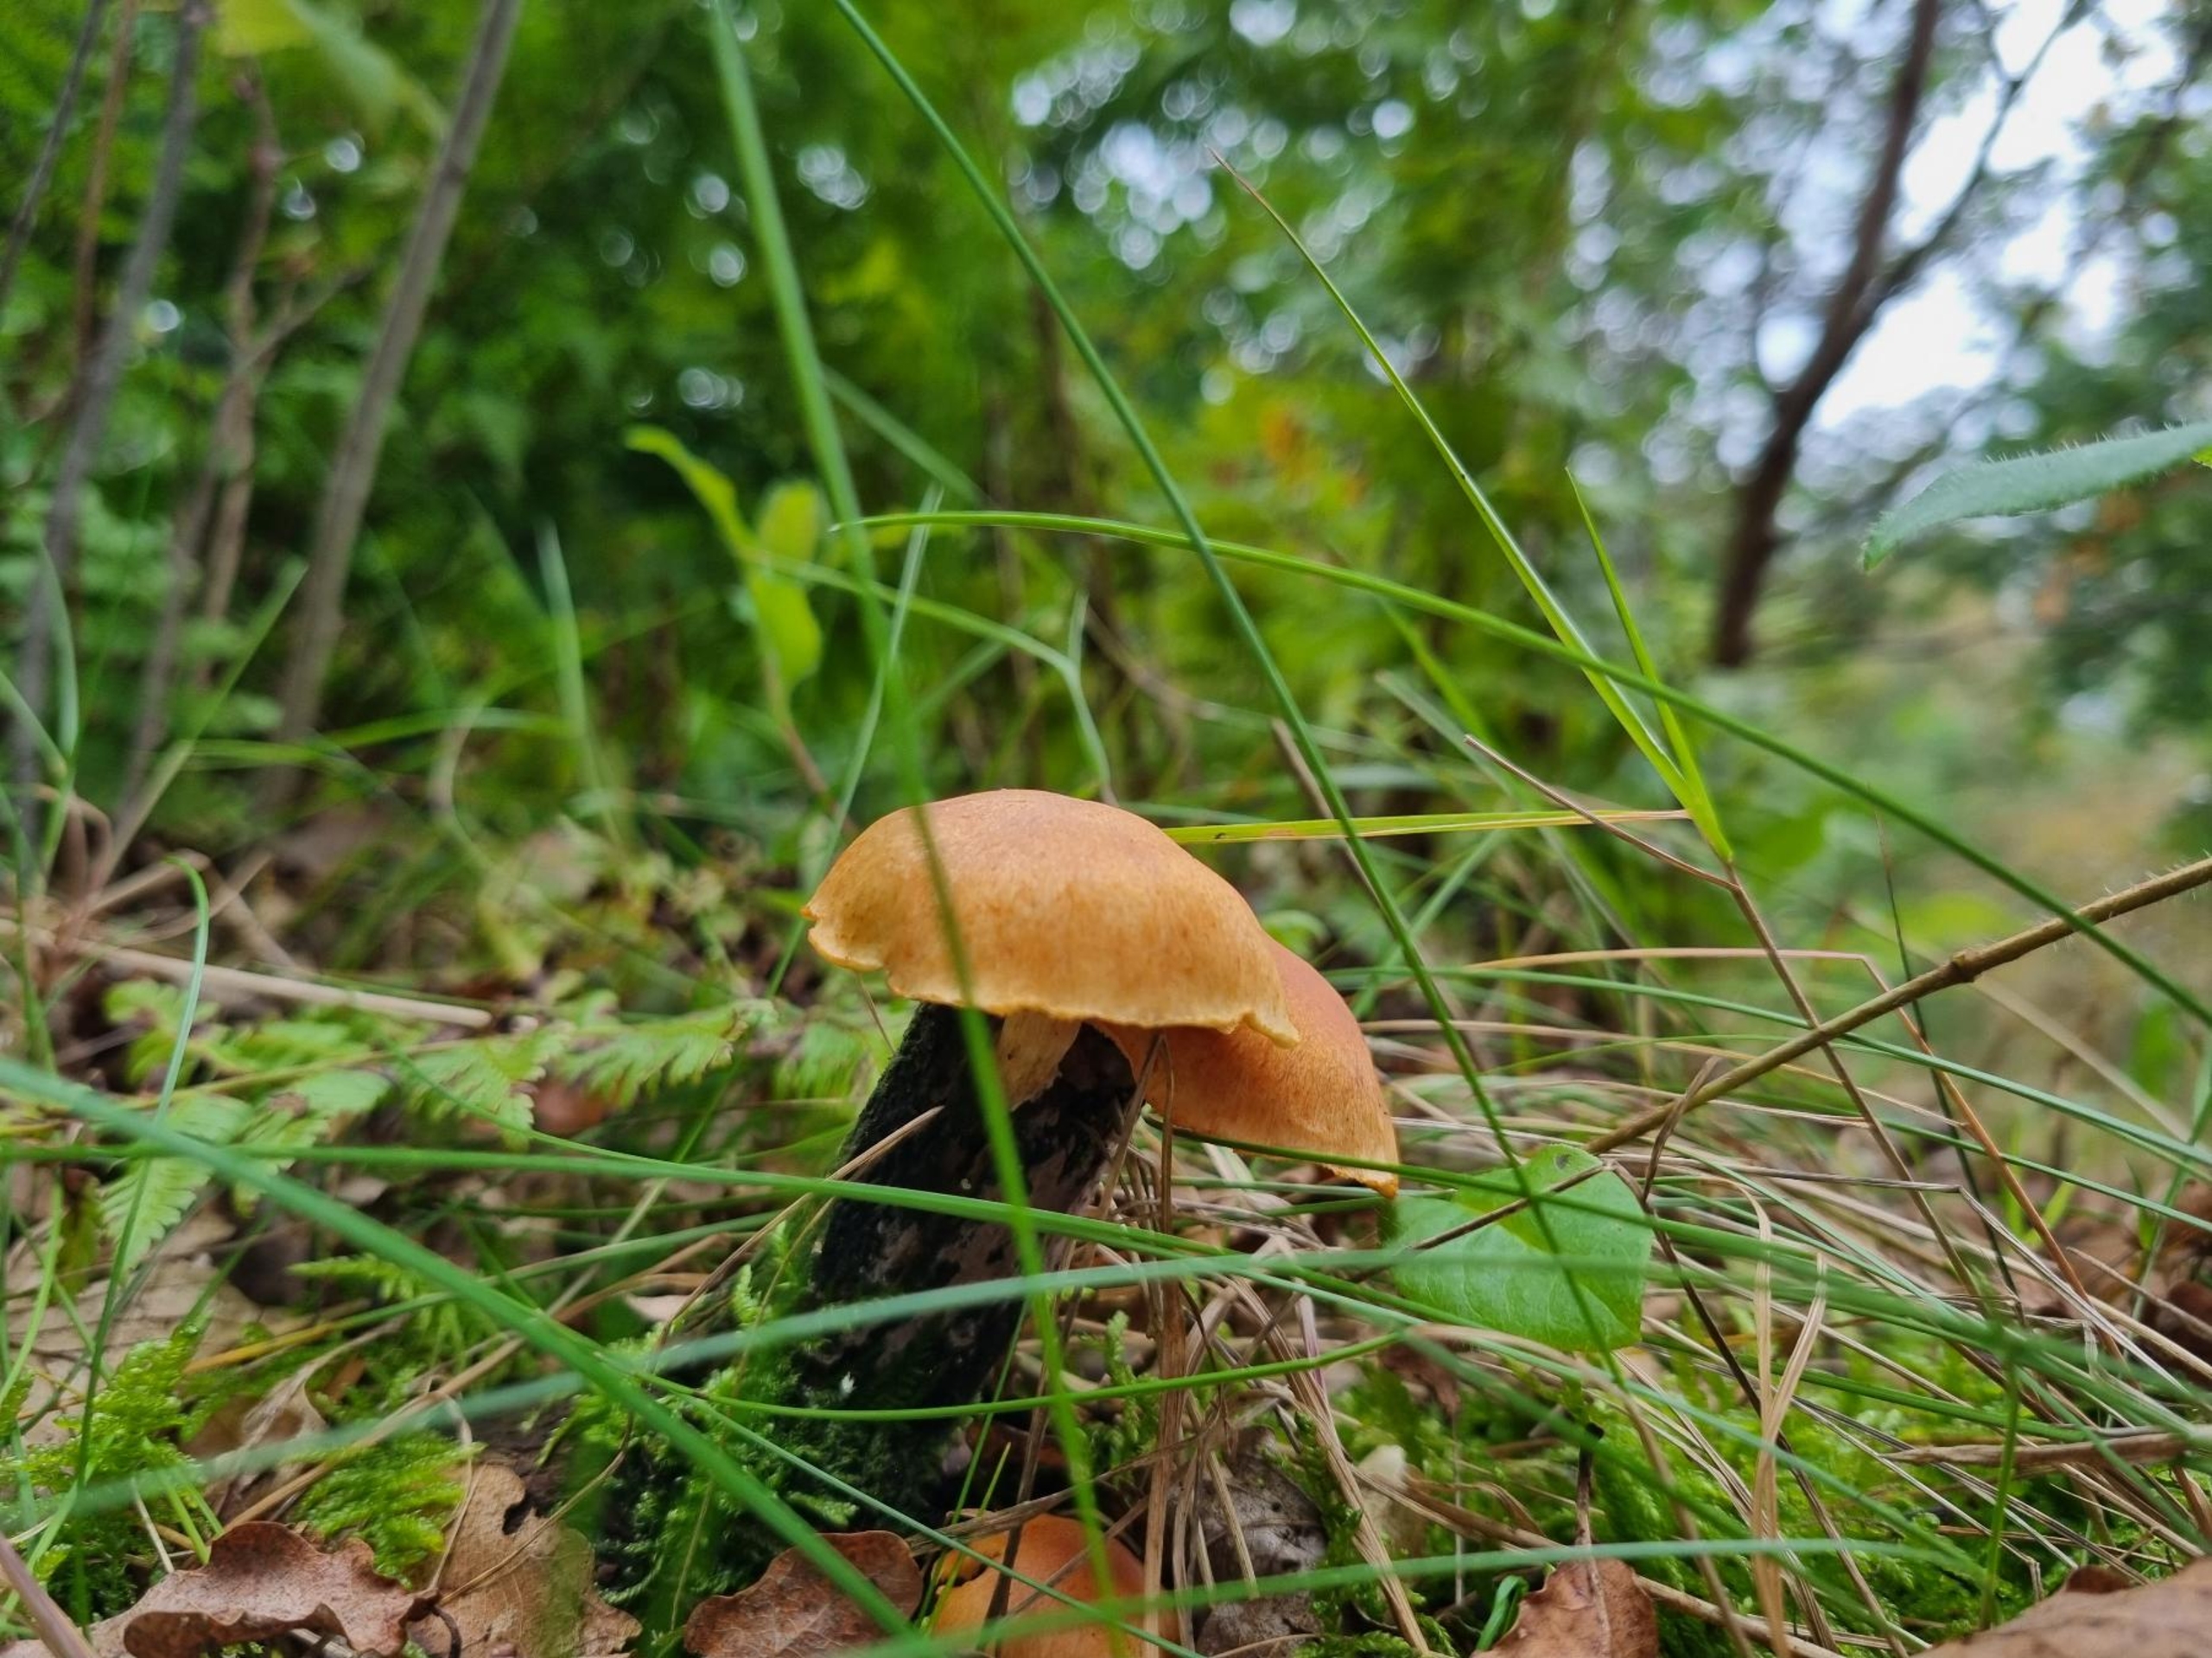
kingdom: Fungi
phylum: Basidiomycota
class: Agaricomycetes
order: Agaricales
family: Hymenogastraceae
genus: Gymnopilus
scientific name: Gymnopilus spectabilis
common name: Fibret flammehat
